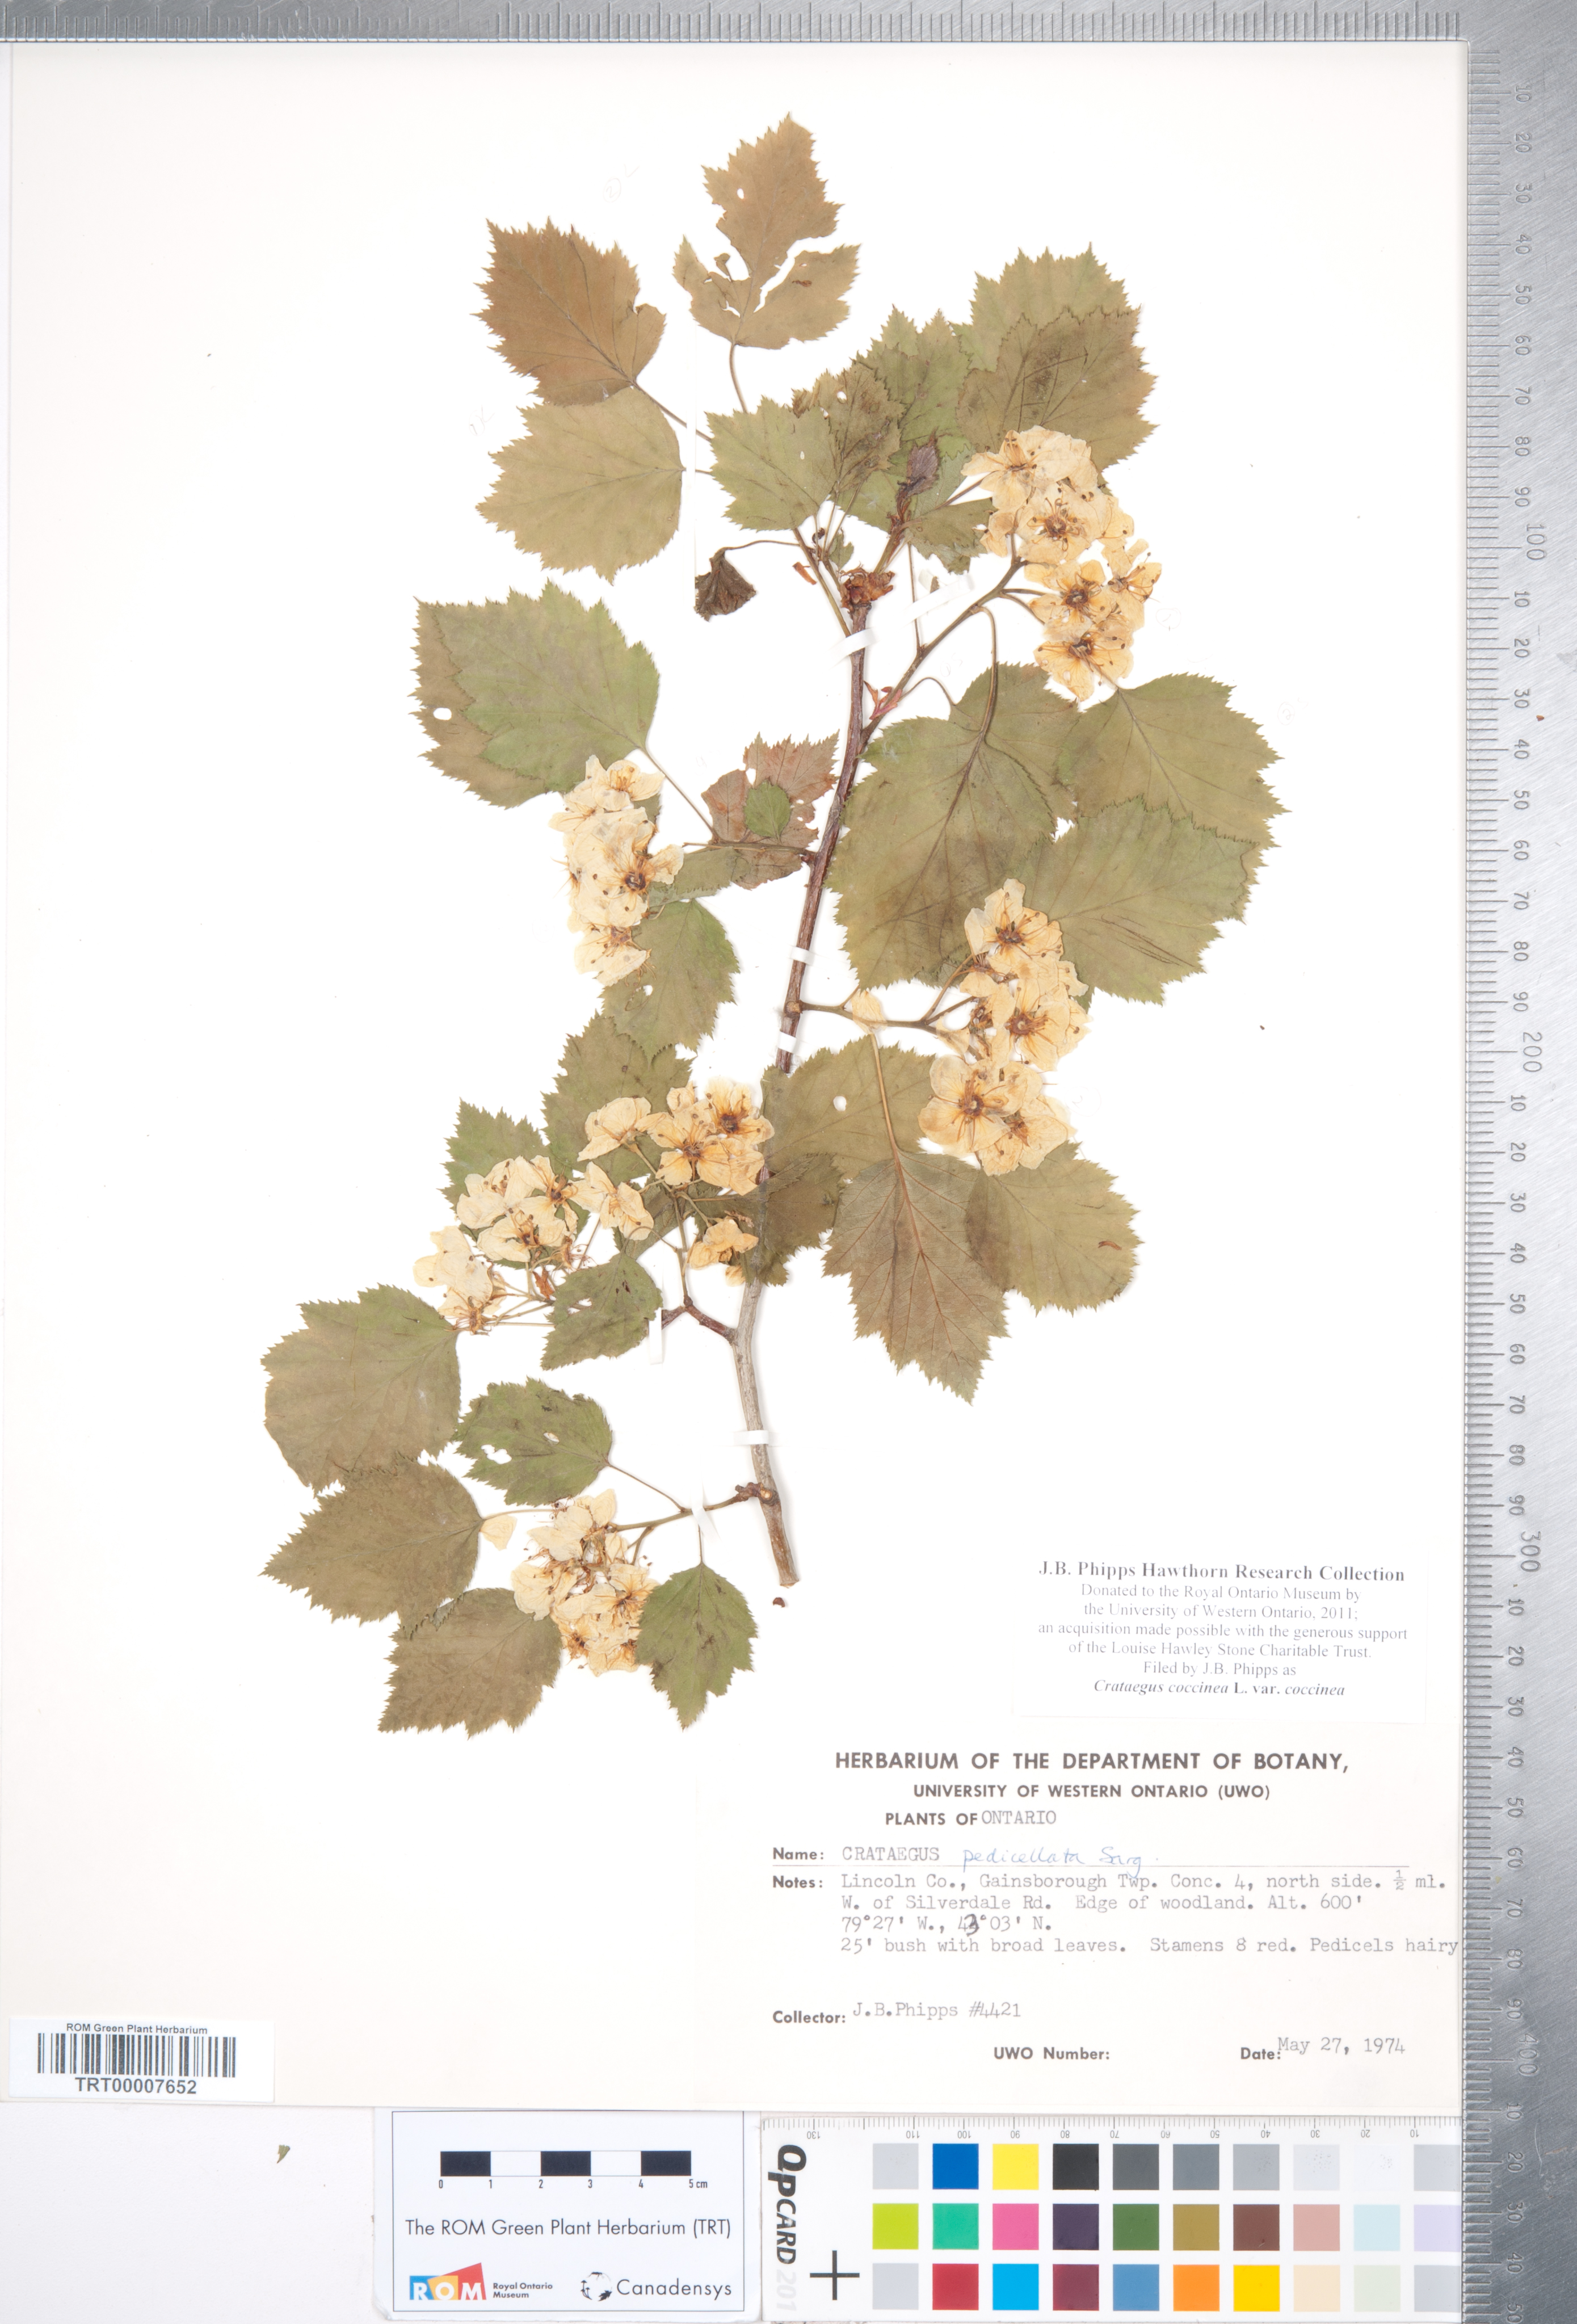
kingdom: Plantae
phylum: Tracheophyta
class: Magnoliopsida
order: Rosales
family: Rosaceae
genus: Crataegus
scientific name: Crataegus coccinea
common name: Scarlet hawthorn
